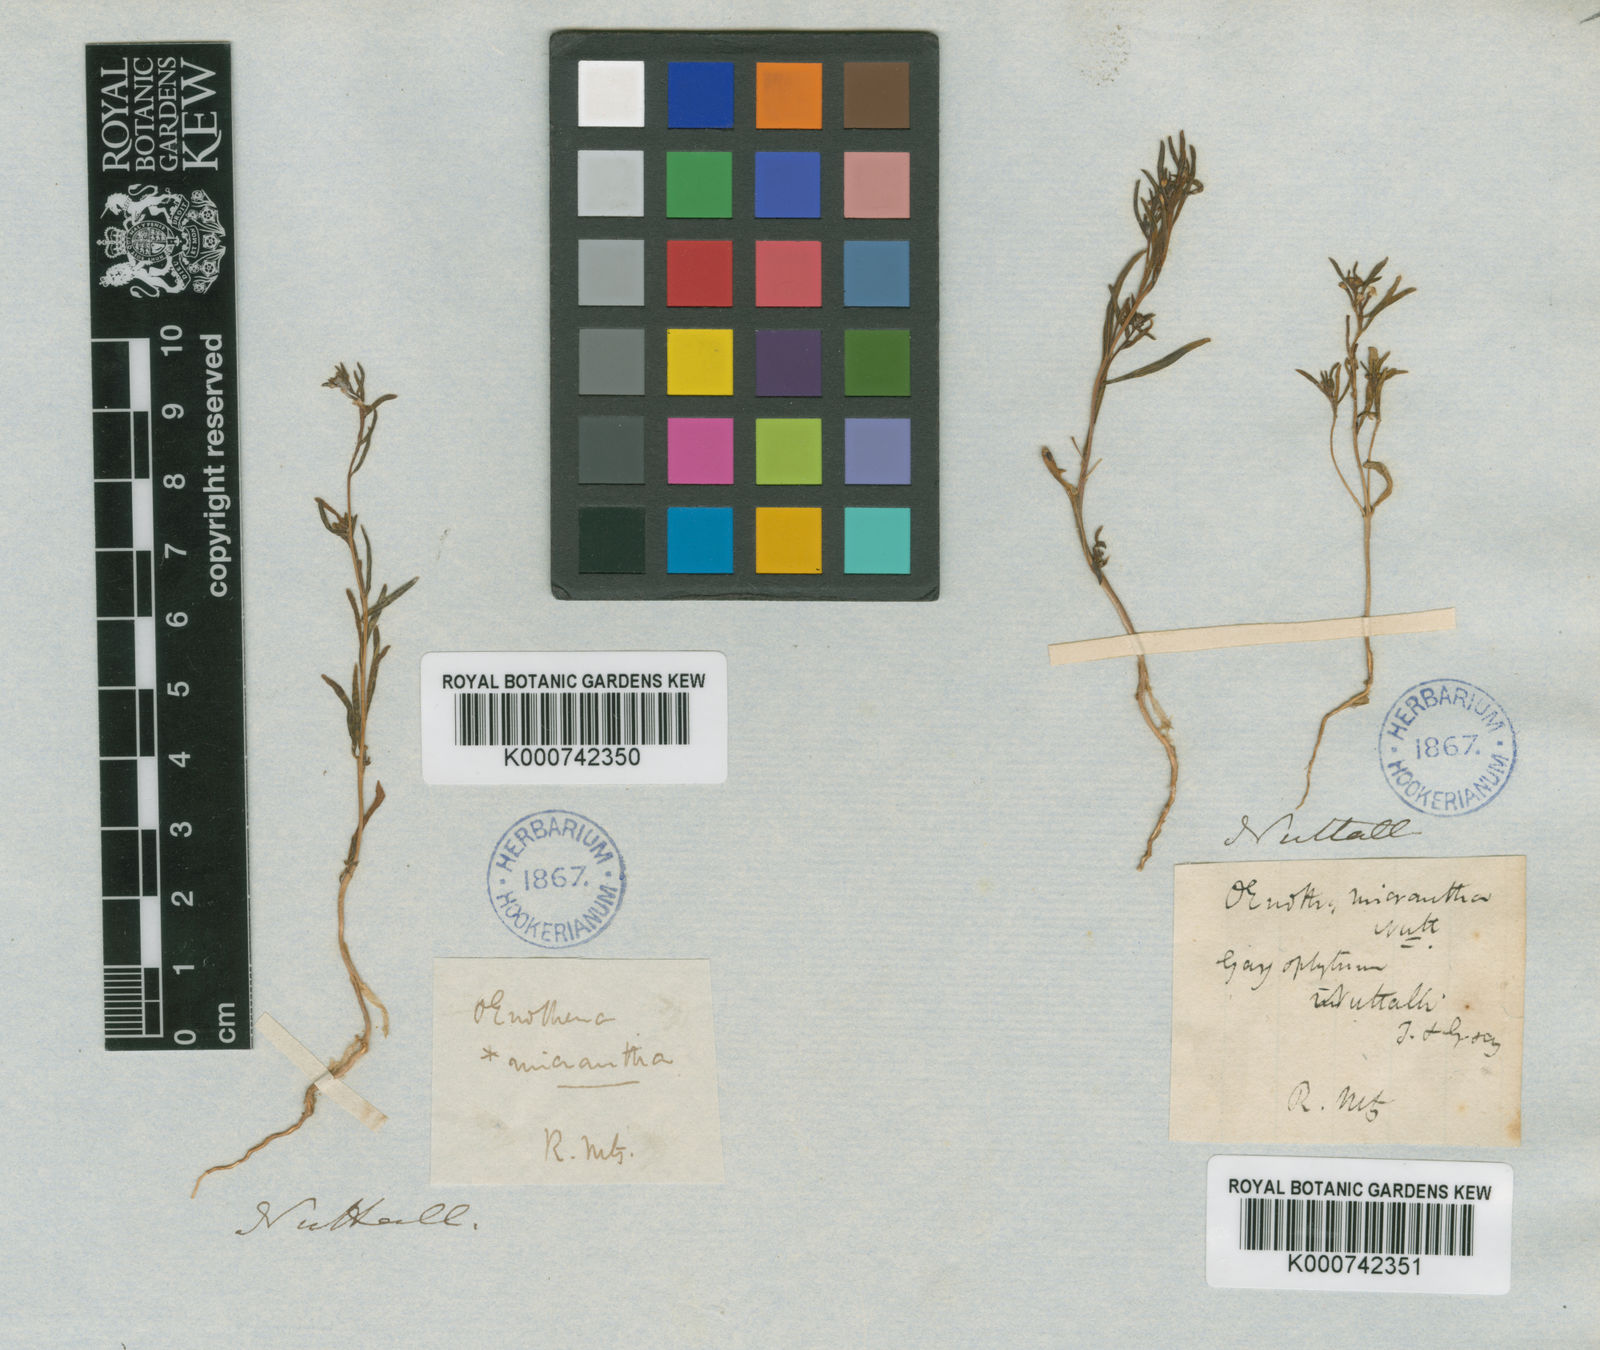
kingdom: Plantae
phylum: Tracheophyta
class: Magnoliopsida
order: Myrtales
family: Onagraceae
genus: Gayophytum
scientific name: Gayophytum humile
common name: Dwarf groundsmoke
